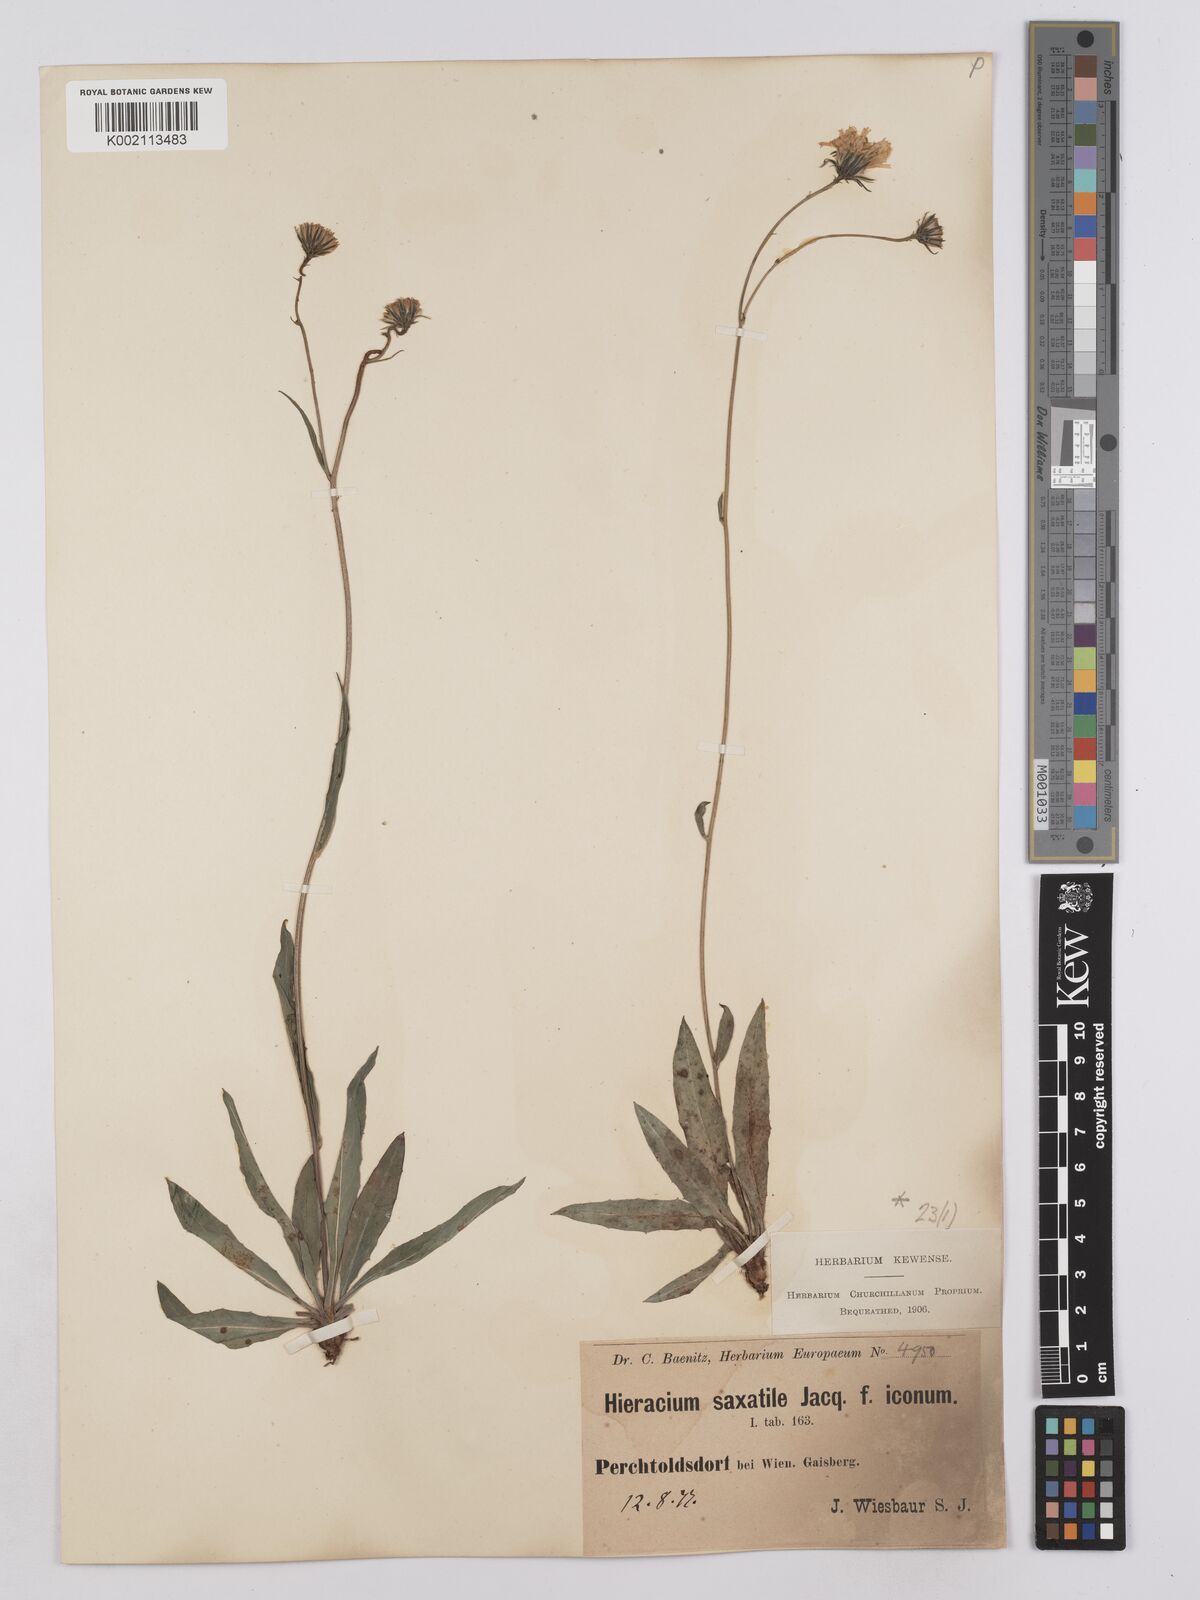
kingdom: Plantae
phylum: Tracheophyta
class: Magnoliopsida
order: Asterales
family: Asteraceae
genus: Hieracium
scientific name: Hieracium saxatile
